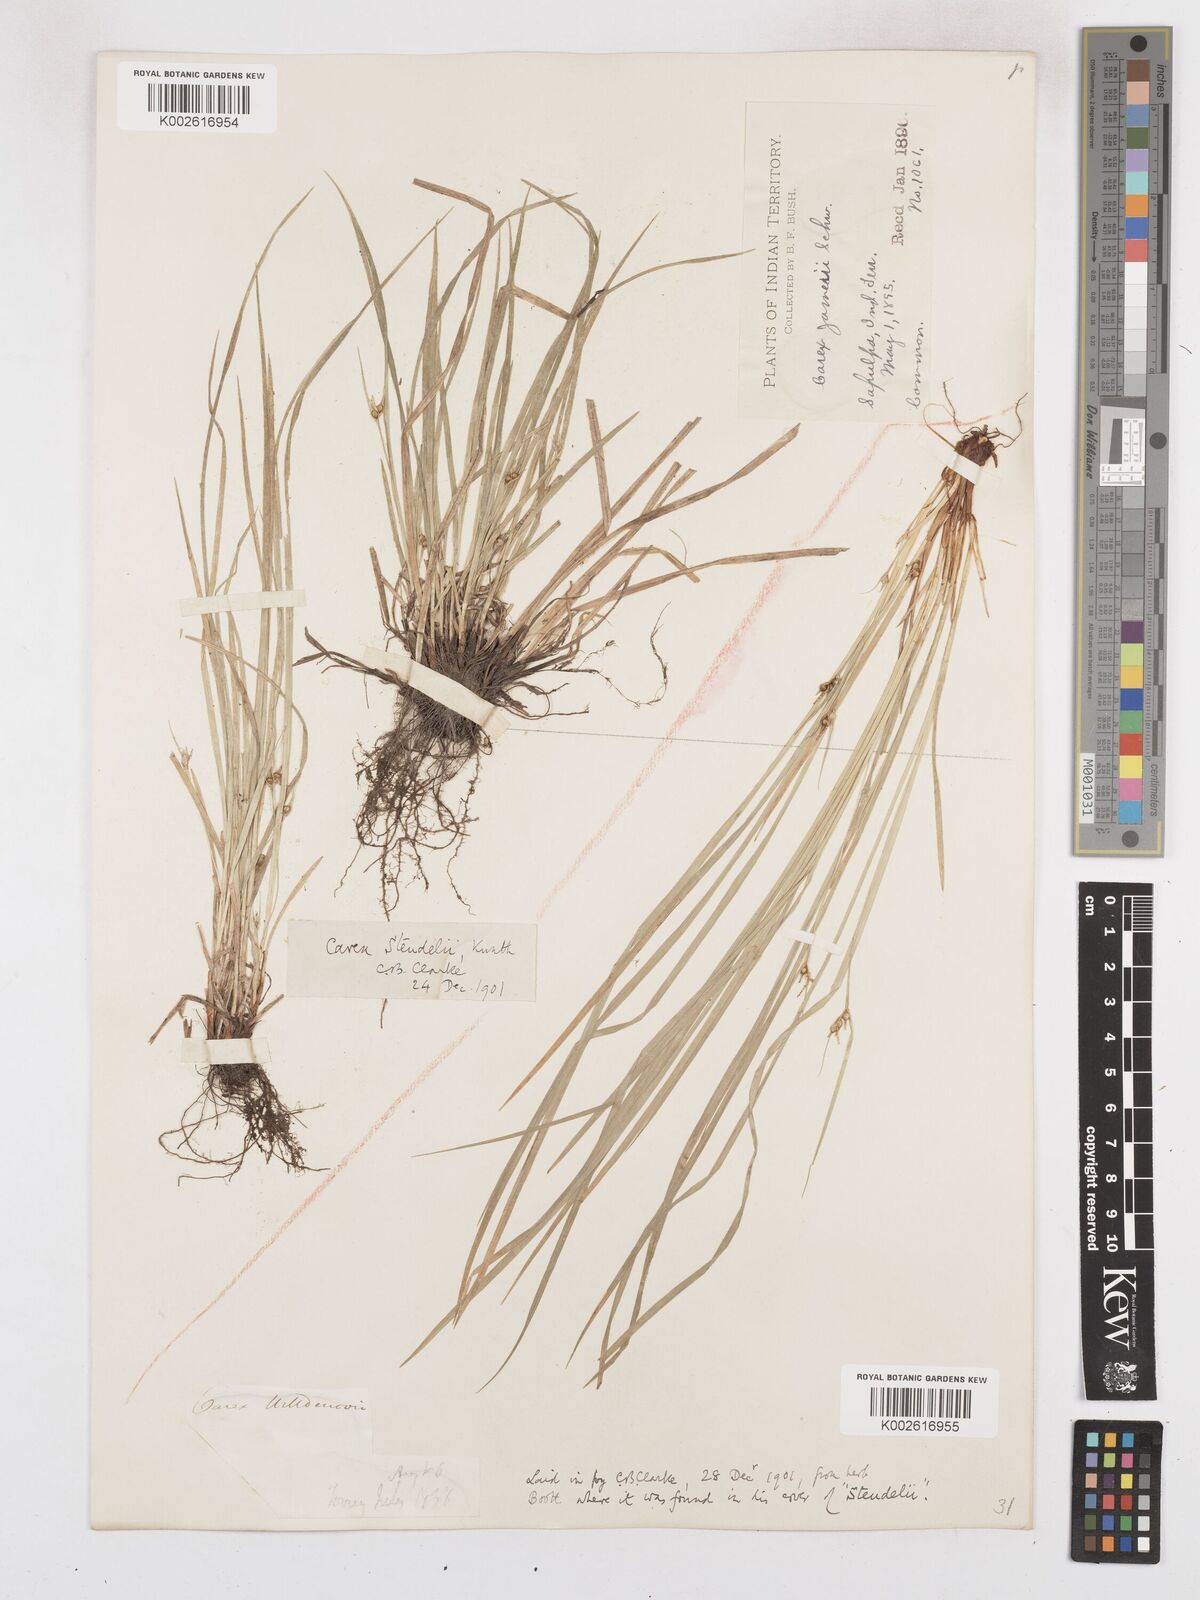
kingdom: Plantae
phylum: Tracheophyta
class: Liliopsida
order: Poales
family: Cyperaceae
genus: Carex
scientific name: Carex jamesii
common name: Grass sedge
